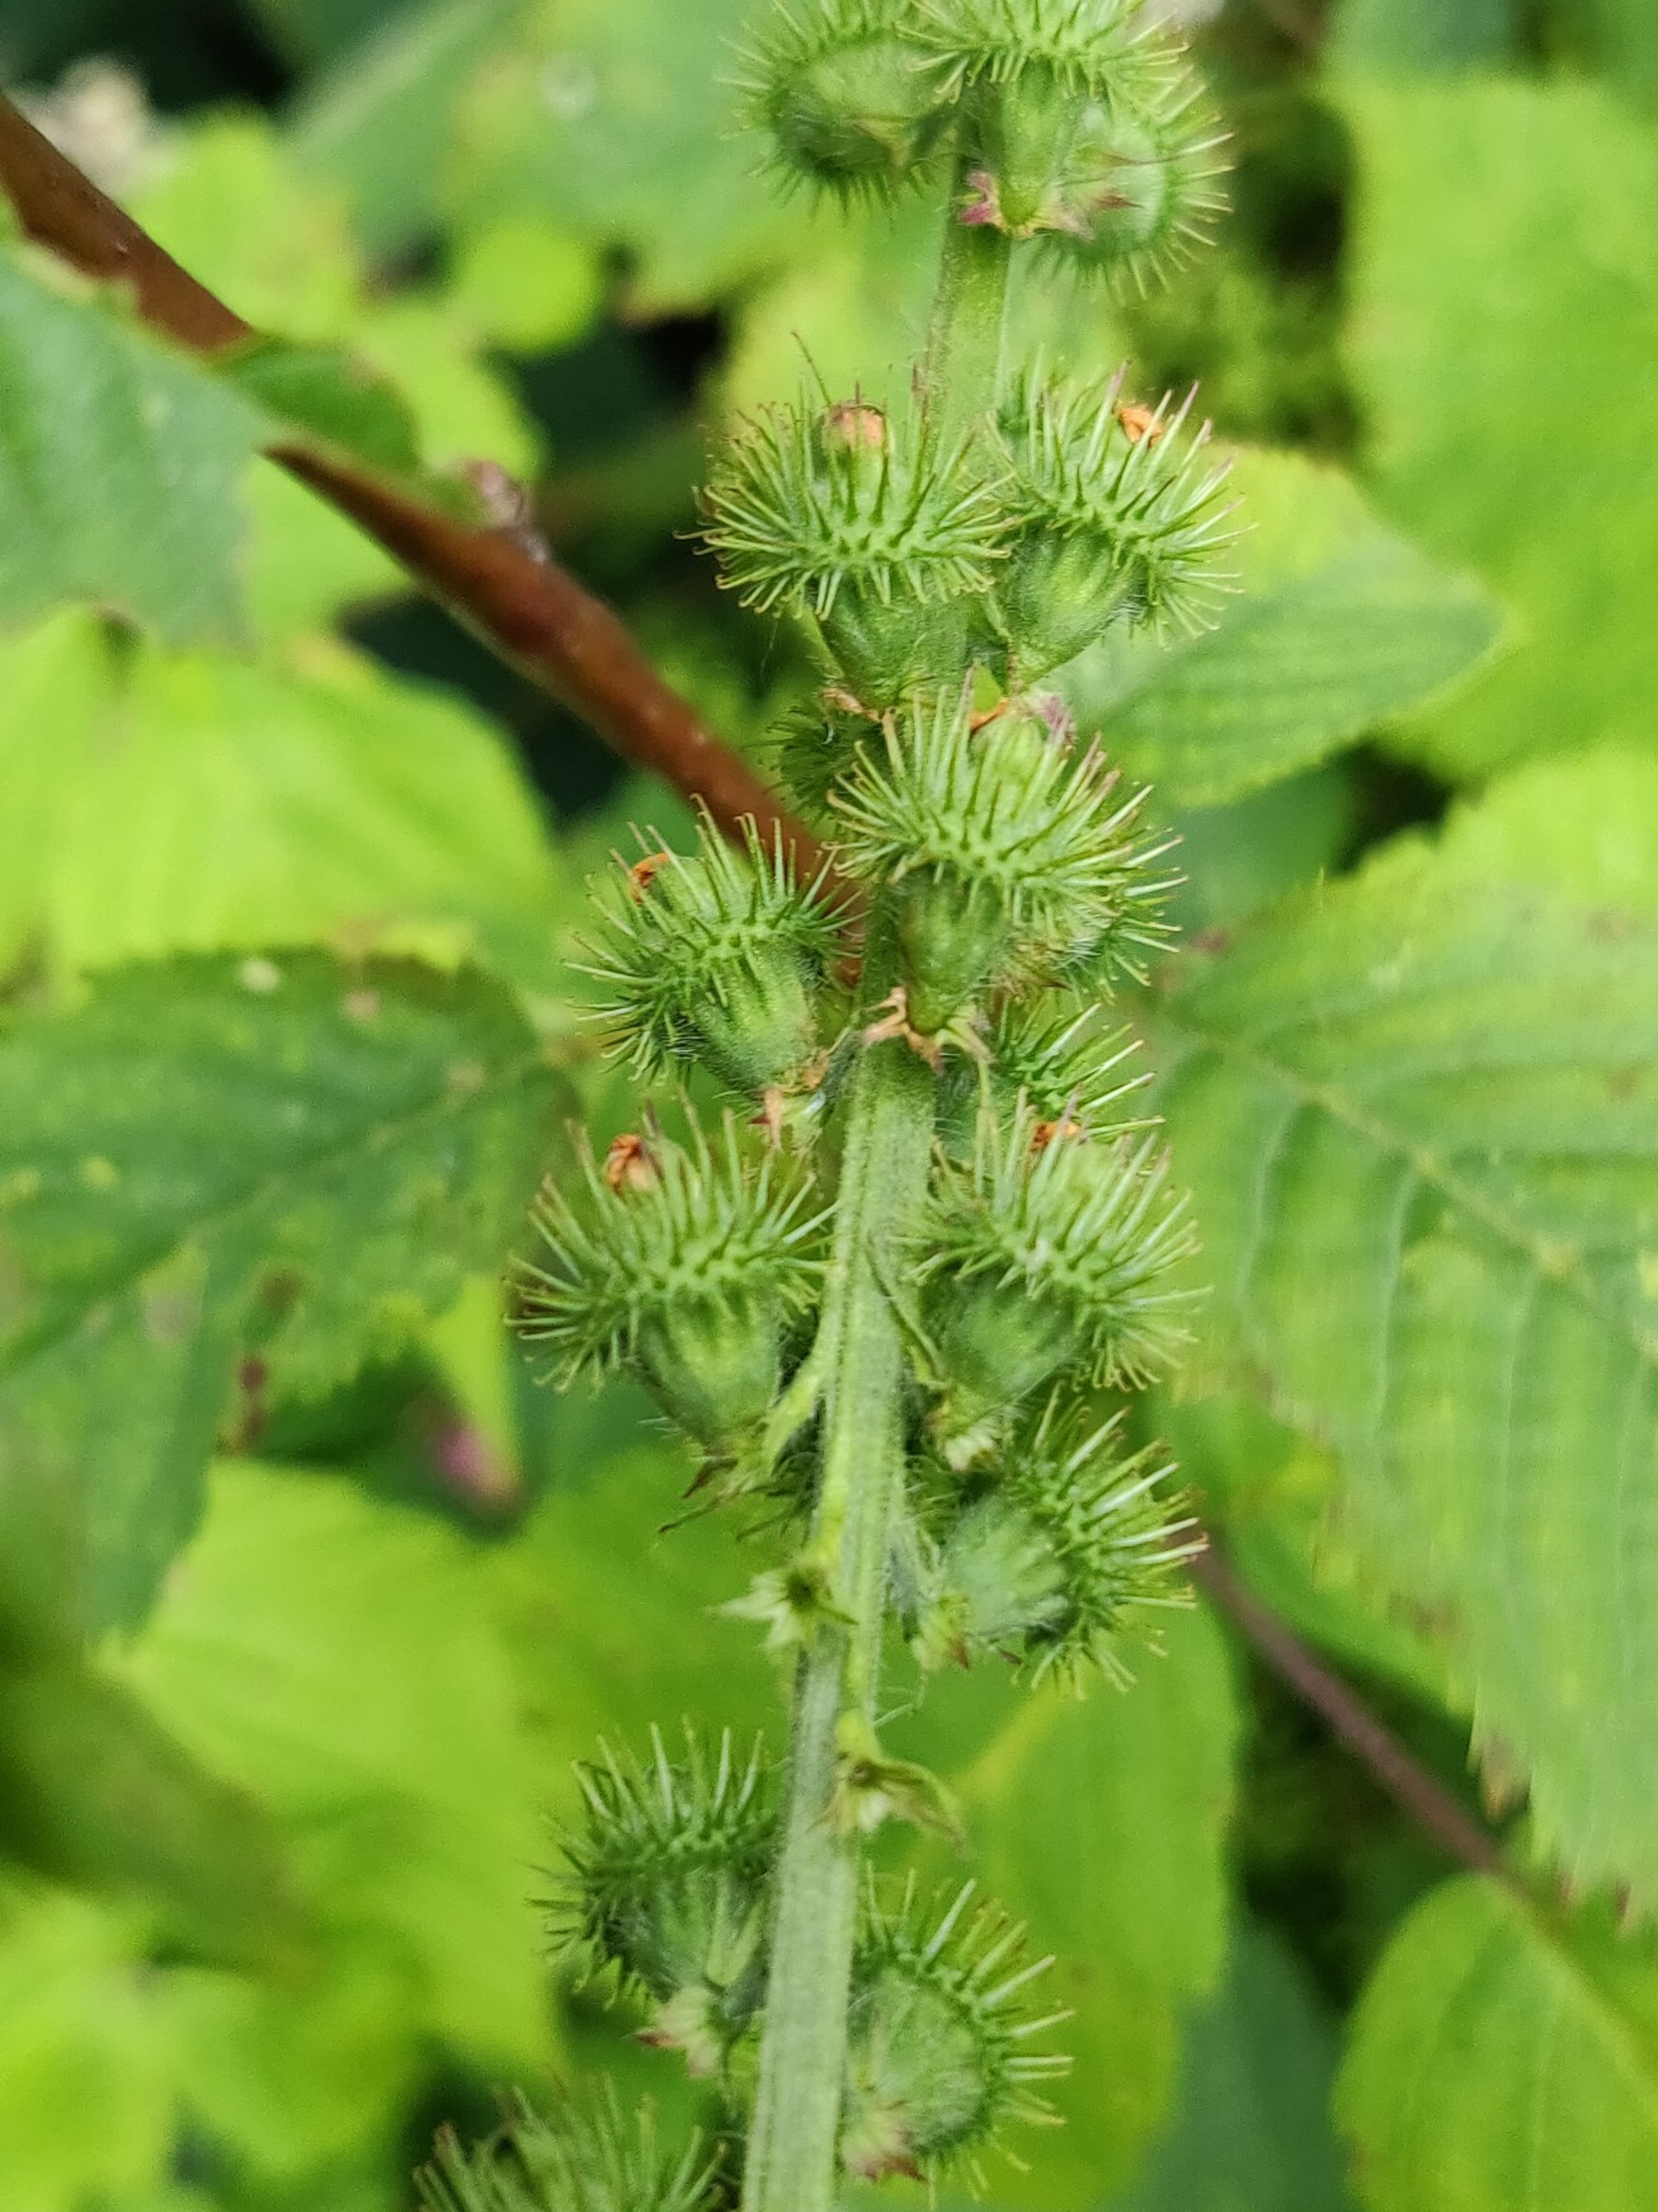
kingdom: Plantae
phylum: Tracheophyta
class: Magnoliopsida
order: Rosales
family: Rosaceae
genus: Agrimonia
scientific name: Agrimonia procera
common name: Vellugtende agermåne
